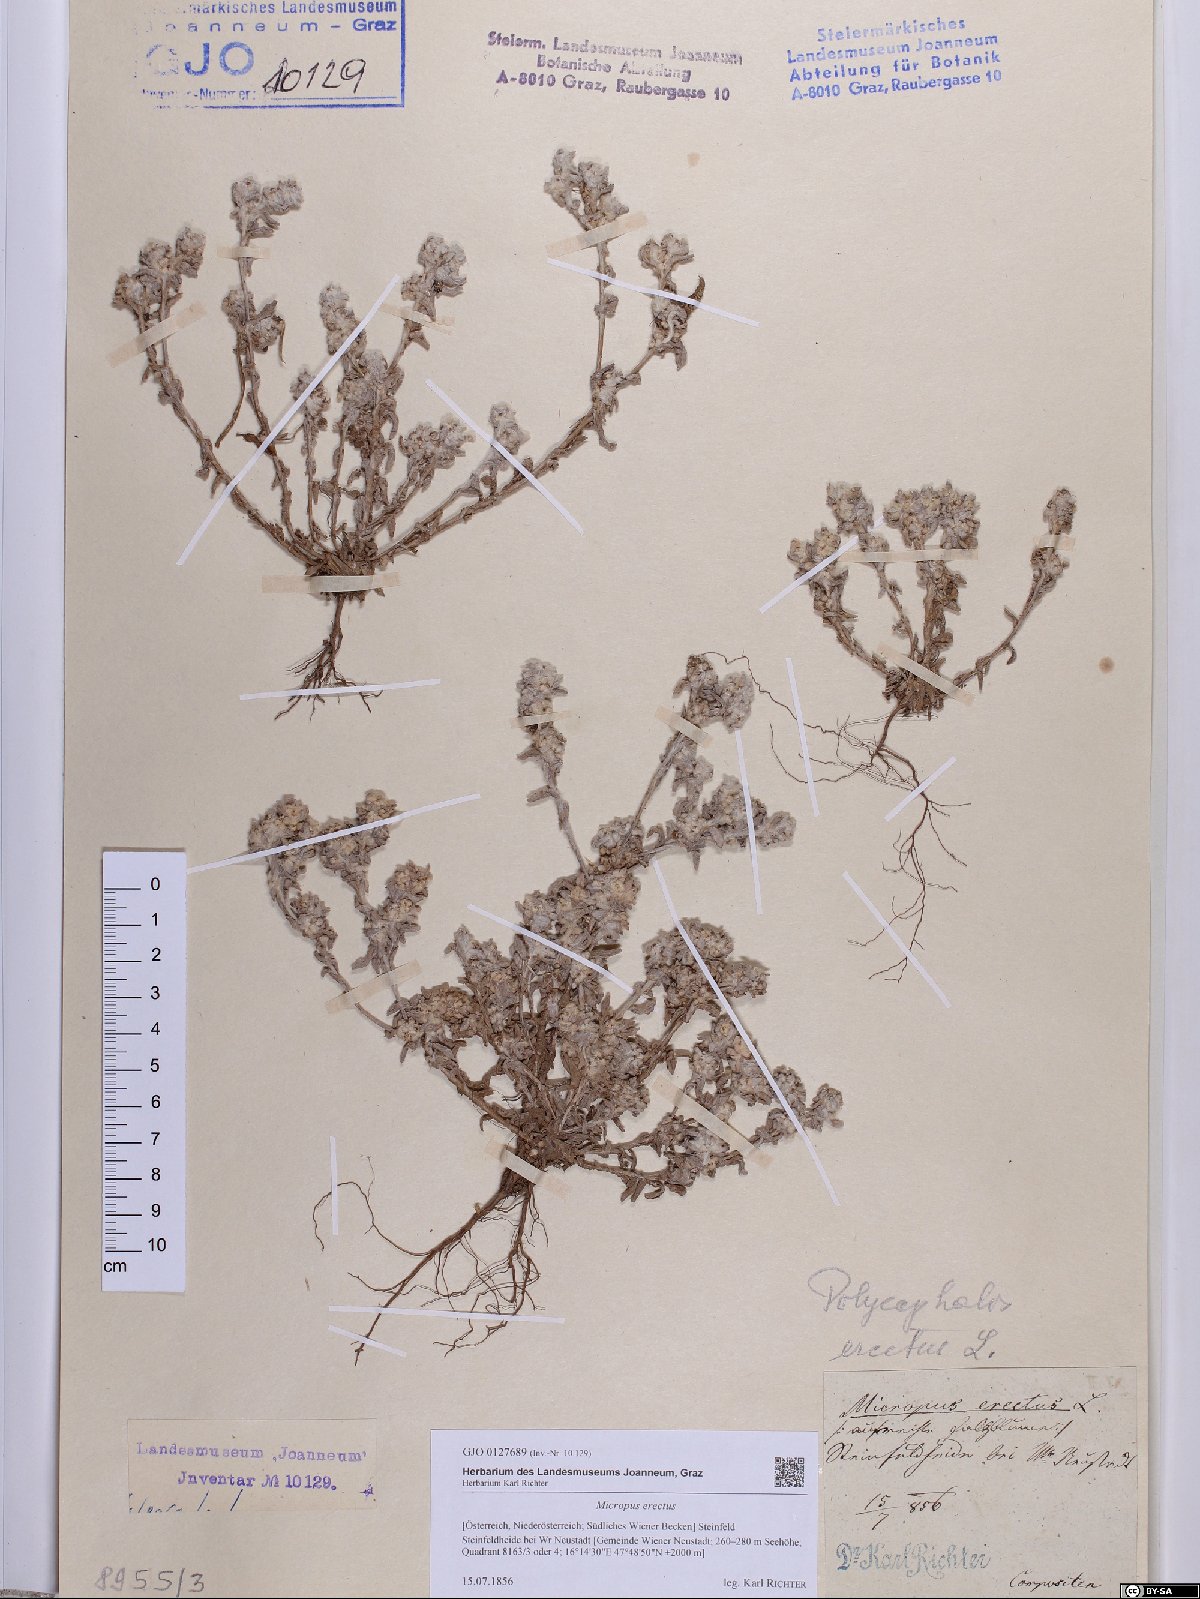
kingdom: Plantae
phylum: Tracheophyta
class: Magnoliopsida
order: Asterales
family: Asteraceae
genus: Bombycilaena
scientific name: Bombycilaena erecta
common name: Micropus
